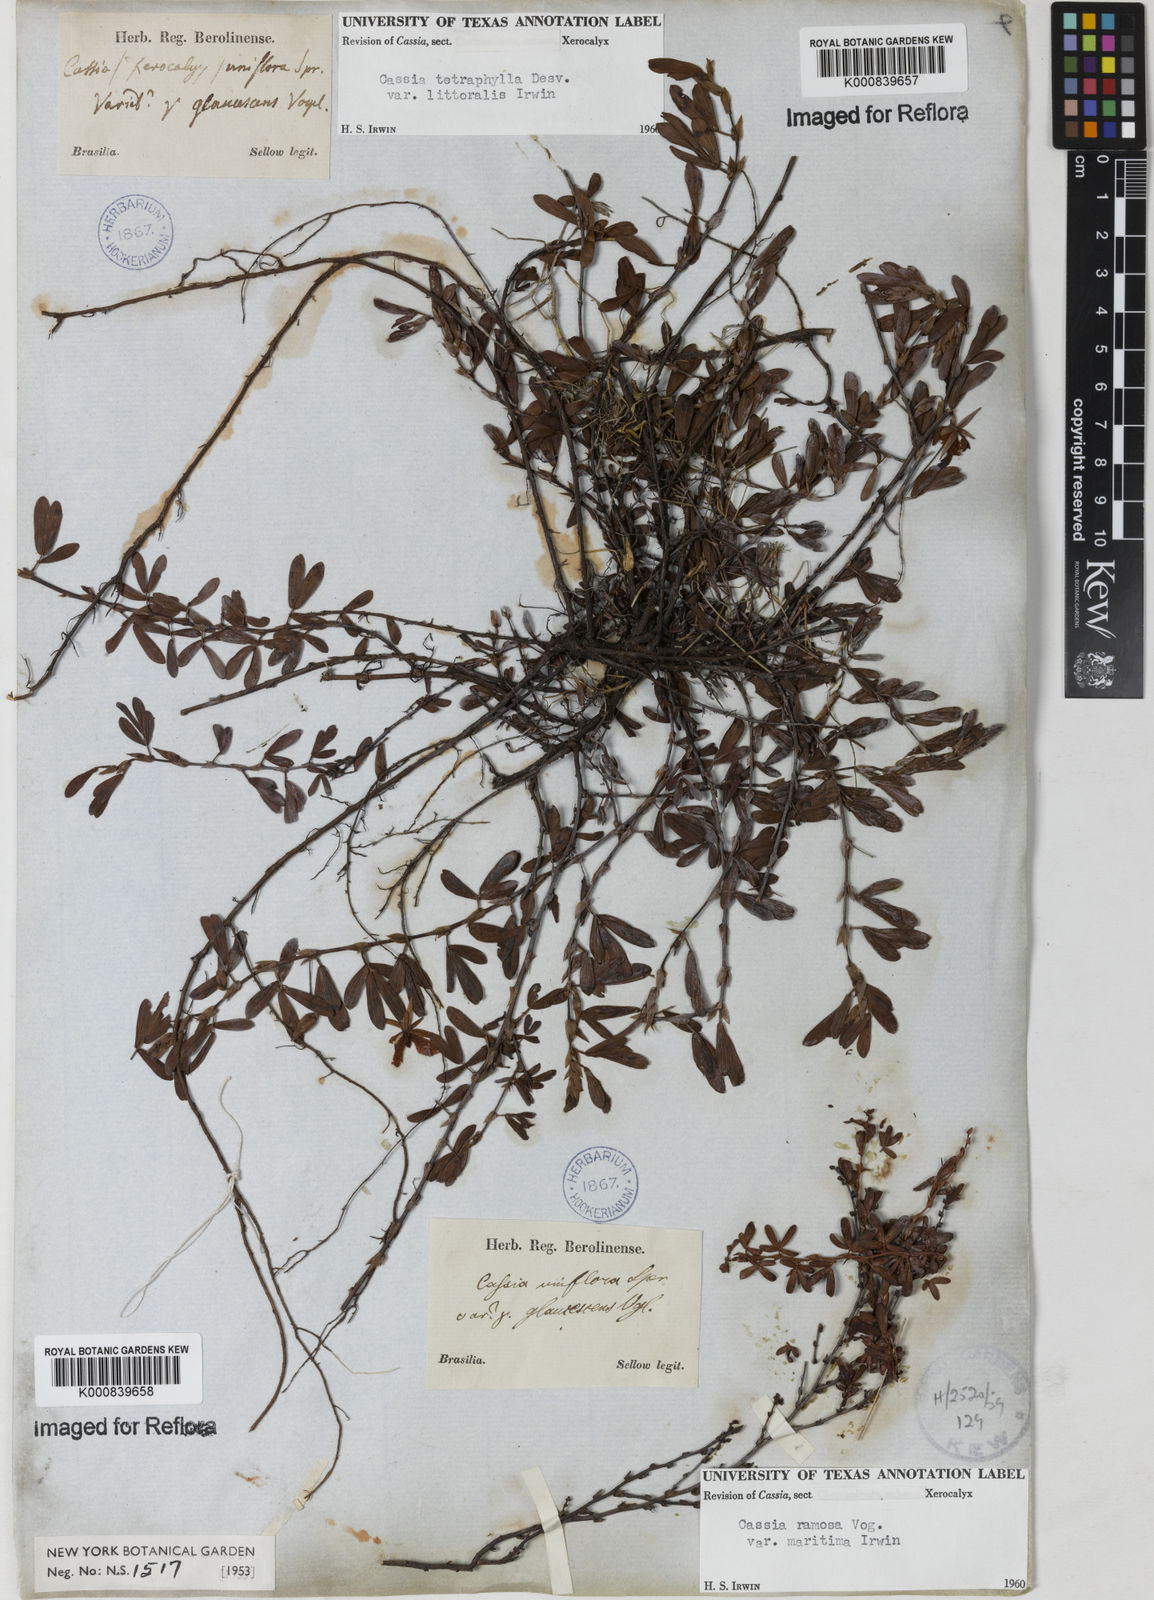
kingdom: Plantae
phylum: Tracheophyta
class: Magnoliopsida
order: Fabales
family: Fabaceae
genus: Chamaecrista
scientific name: Chamaecrista desvauxii
